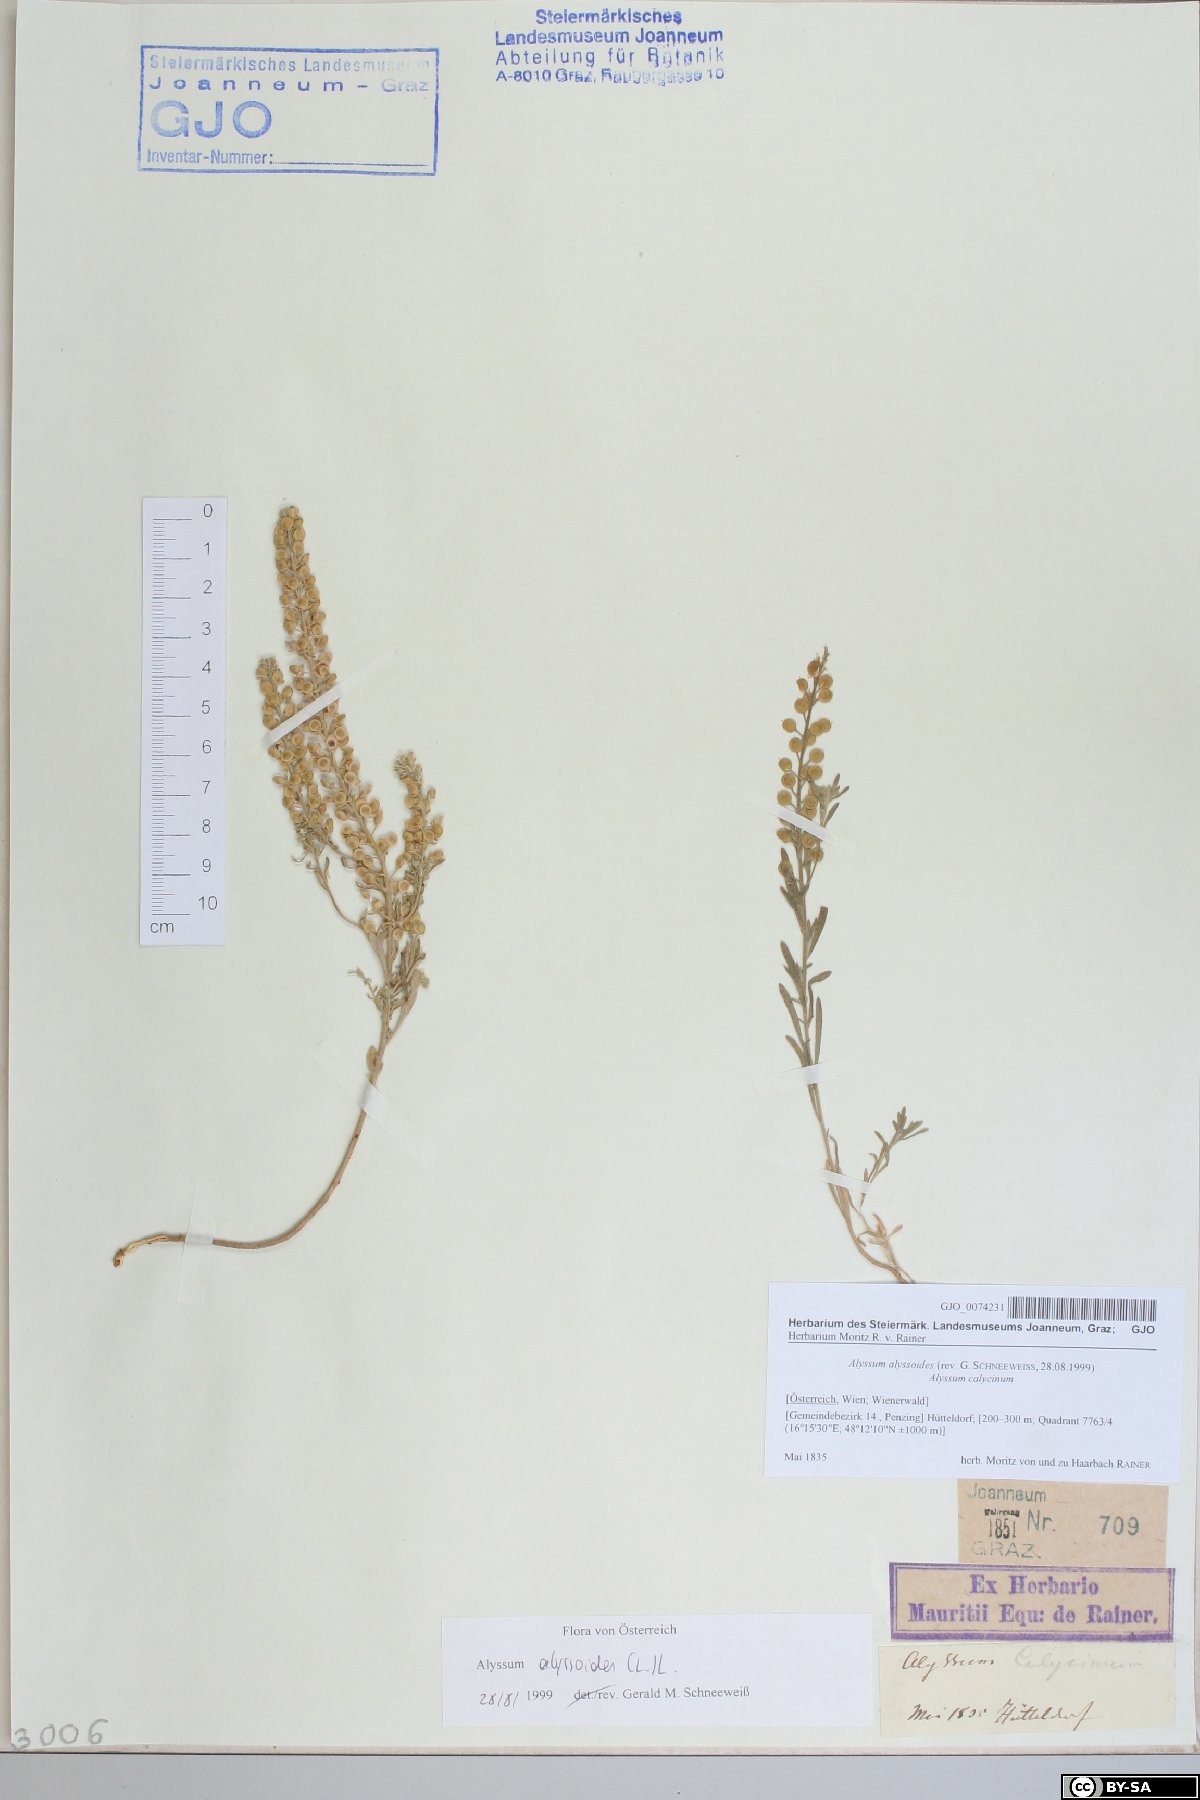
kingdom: Plantae
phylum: Tracheophyta
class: Magnoliopsida
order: Brassicales
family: Brassicaceae
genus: Alyssum
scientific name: Alyssum alyssoides
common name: Small alison
